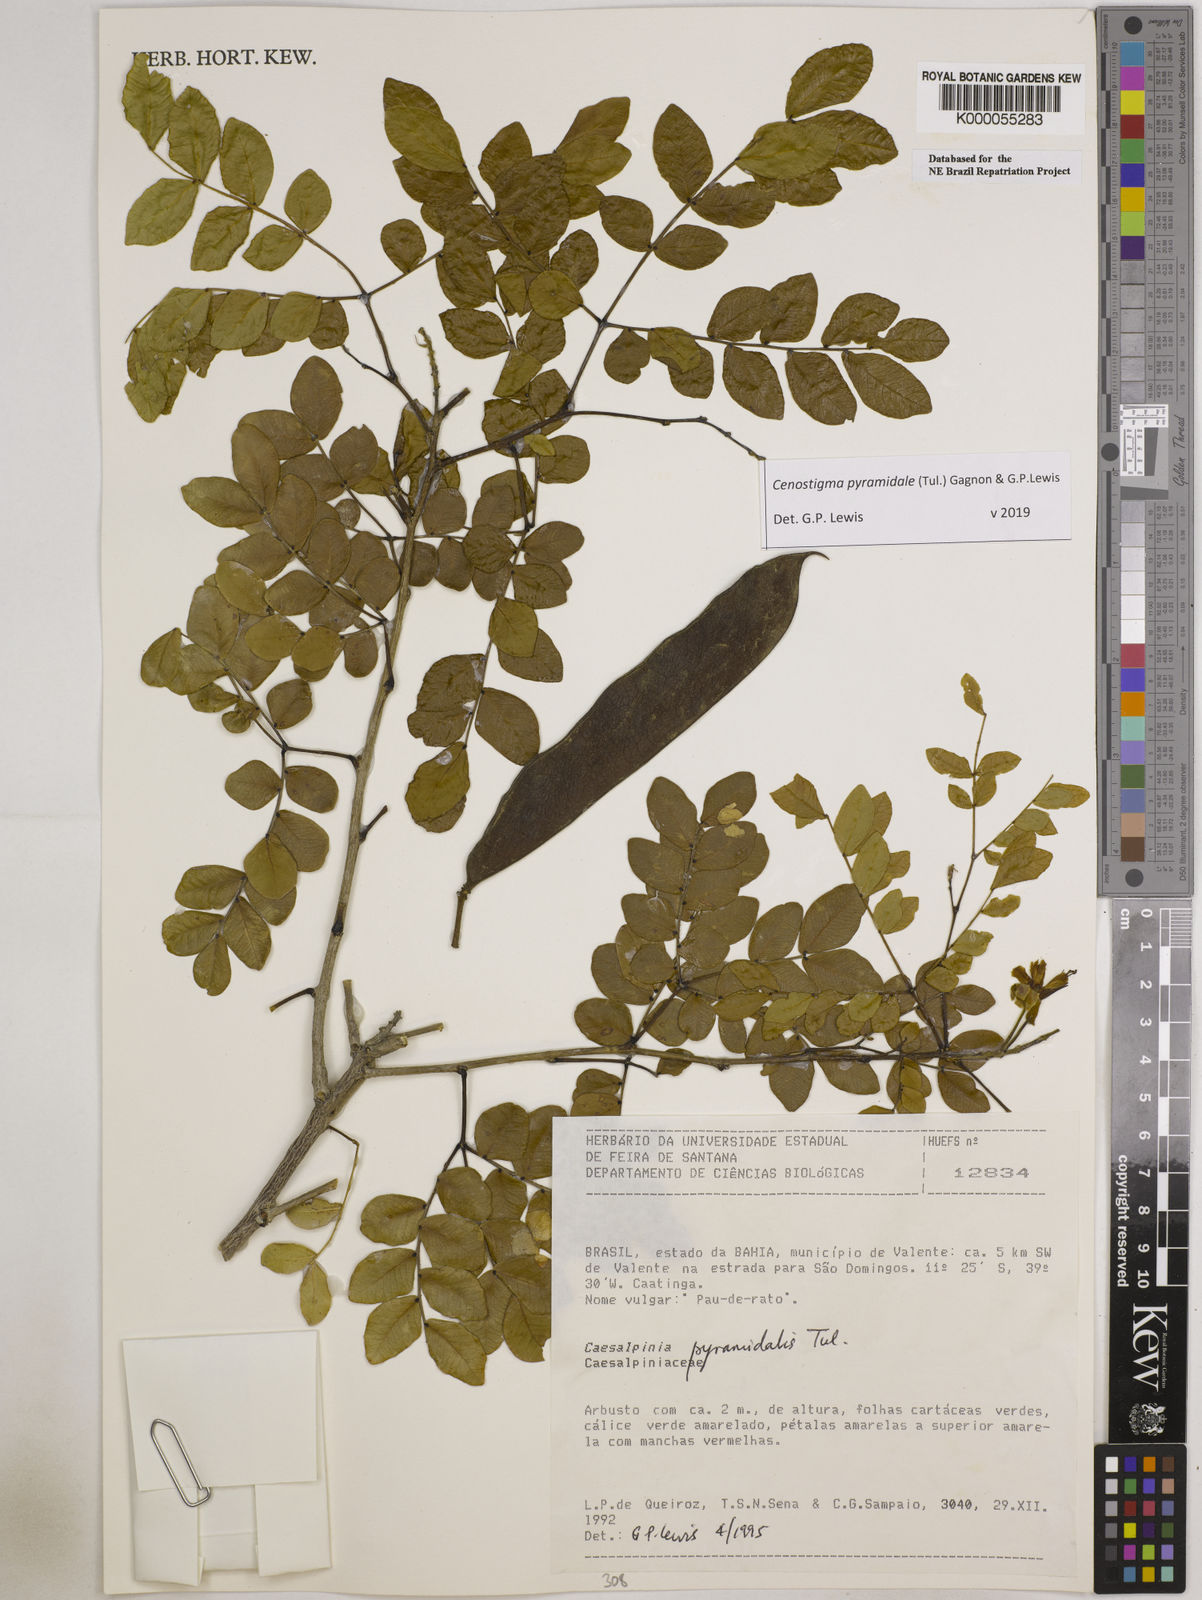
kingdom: Plantae
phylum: Tracheophyta
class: Magnoliopsida
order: Fabales
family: Fabaceae
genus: Cenostigma
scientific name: Cenostigma pyramidale
